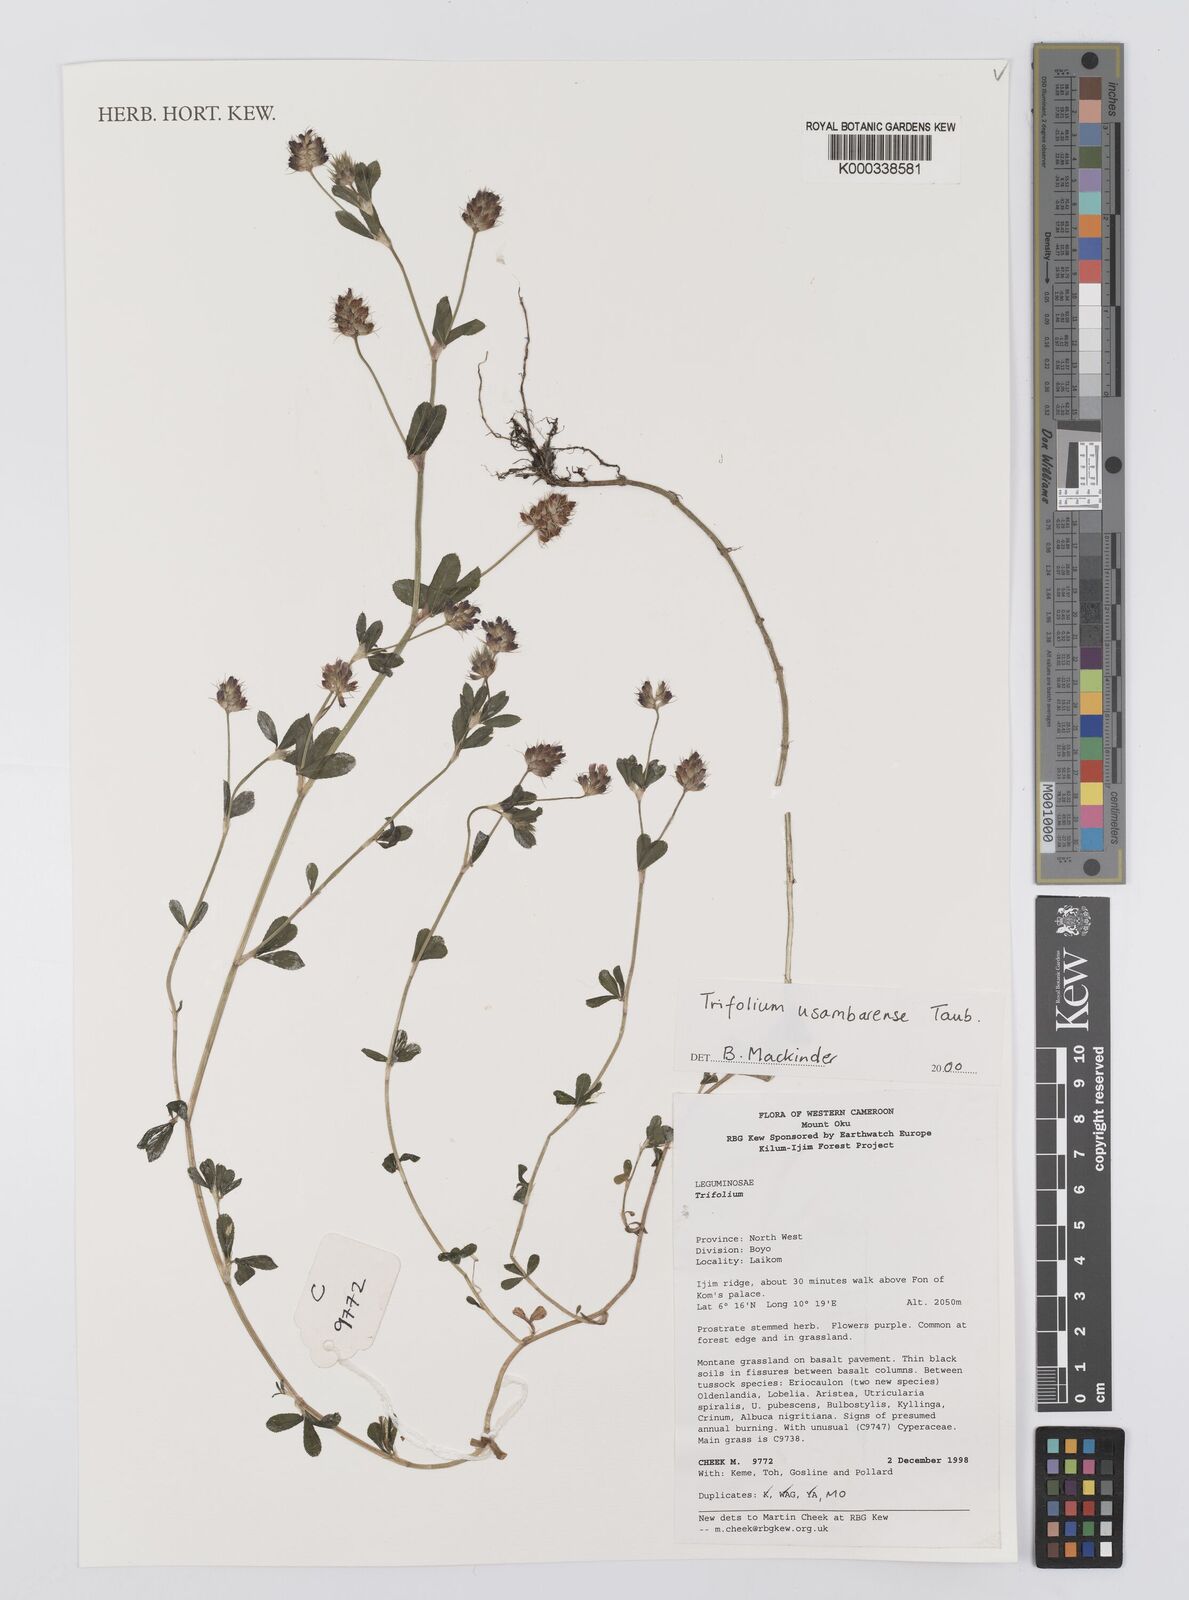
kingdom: Plantae
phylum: Tracheophyta
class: Magnoliopsida
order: Fabales
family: Fabaceae
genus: Trifolium
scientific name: Trifolium usambarense
